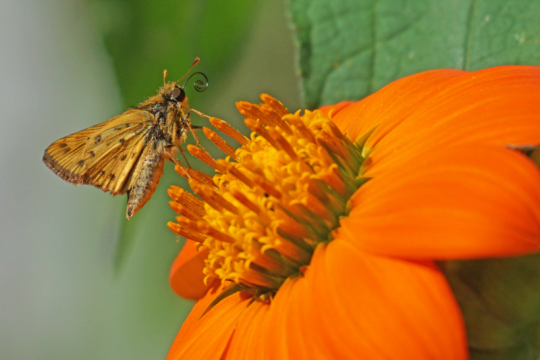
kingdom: Animalia
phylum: Arthropoda
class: Insecta
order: Lepidoptera
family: Hesperiidae
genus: Hylephila
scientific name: Hylephila phyleus
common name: Fiery Skipper
